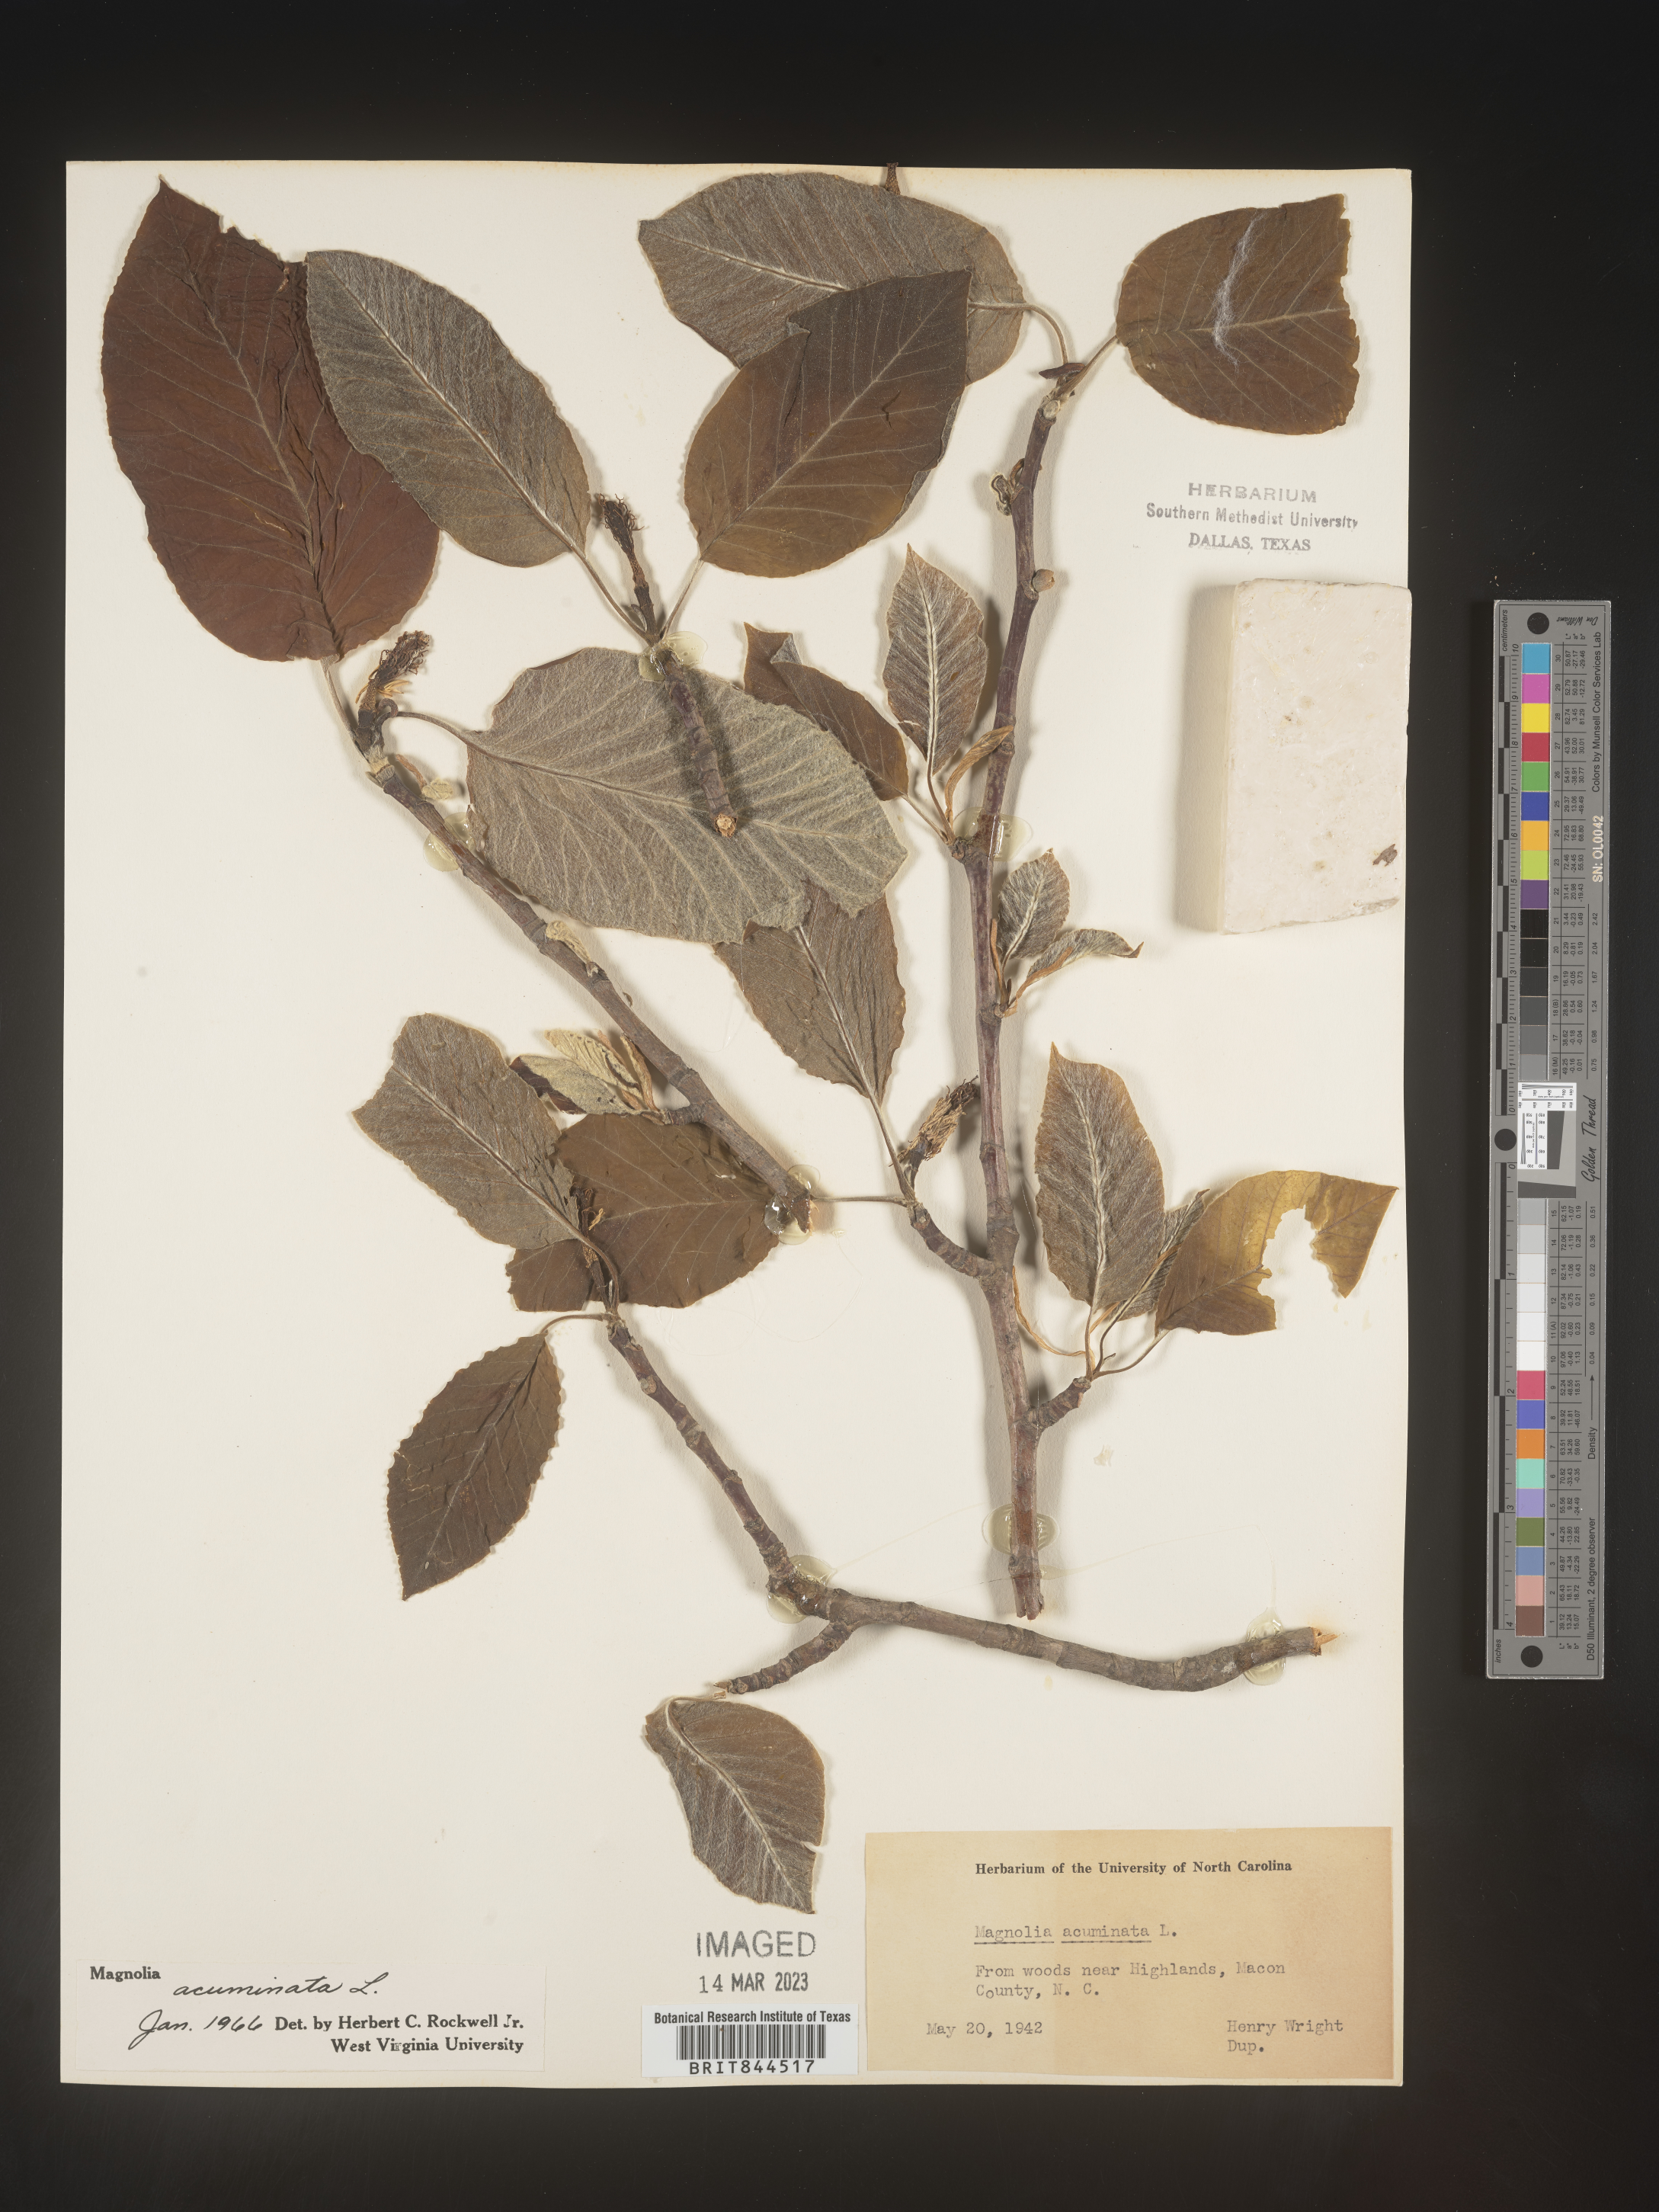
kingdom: Plantae
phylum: Tracheophyta
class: Magnoliopsida
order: Magnoliales
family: Magnoliaceae
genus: Magnolia
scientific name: Magnolia acuminata
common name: Cucumber magnolia
